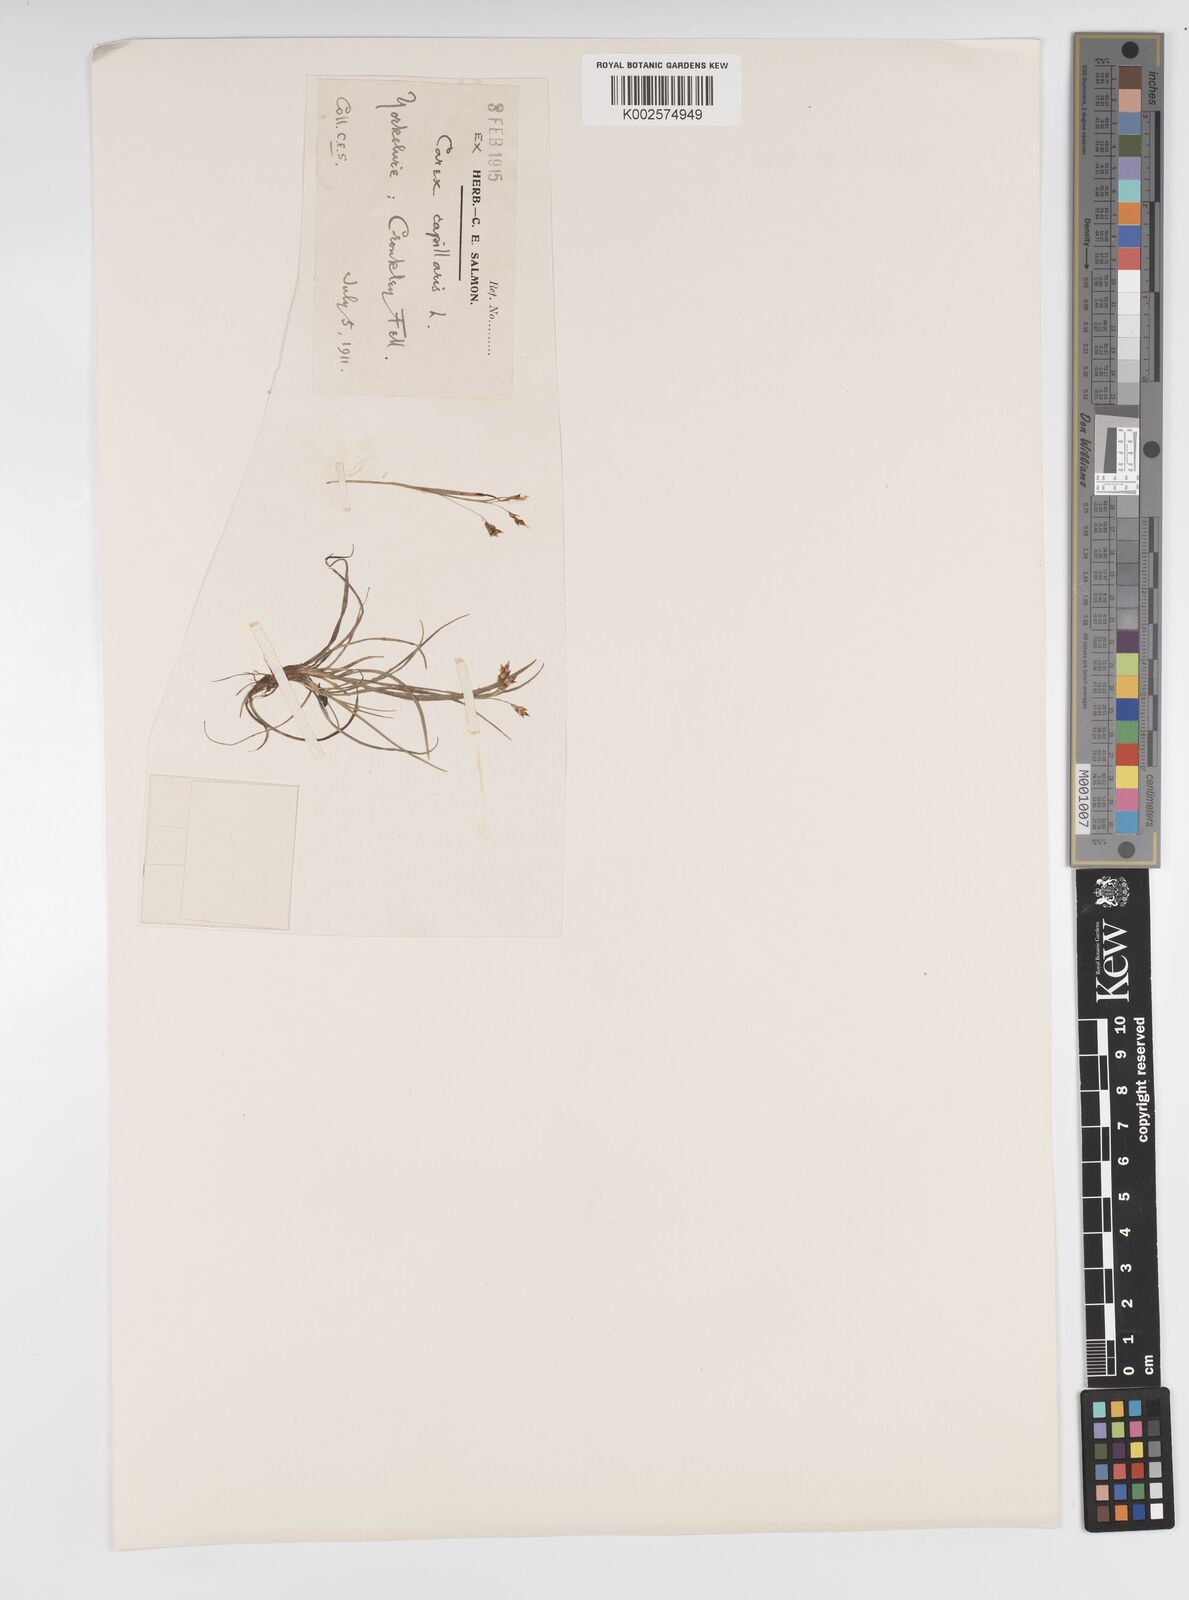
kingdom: Plantae
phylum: Tracheophyta
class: Liliopsida
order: Poales
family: Cyperaceae
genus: Carex
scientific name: Carex capillaris
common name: Hair sedge
